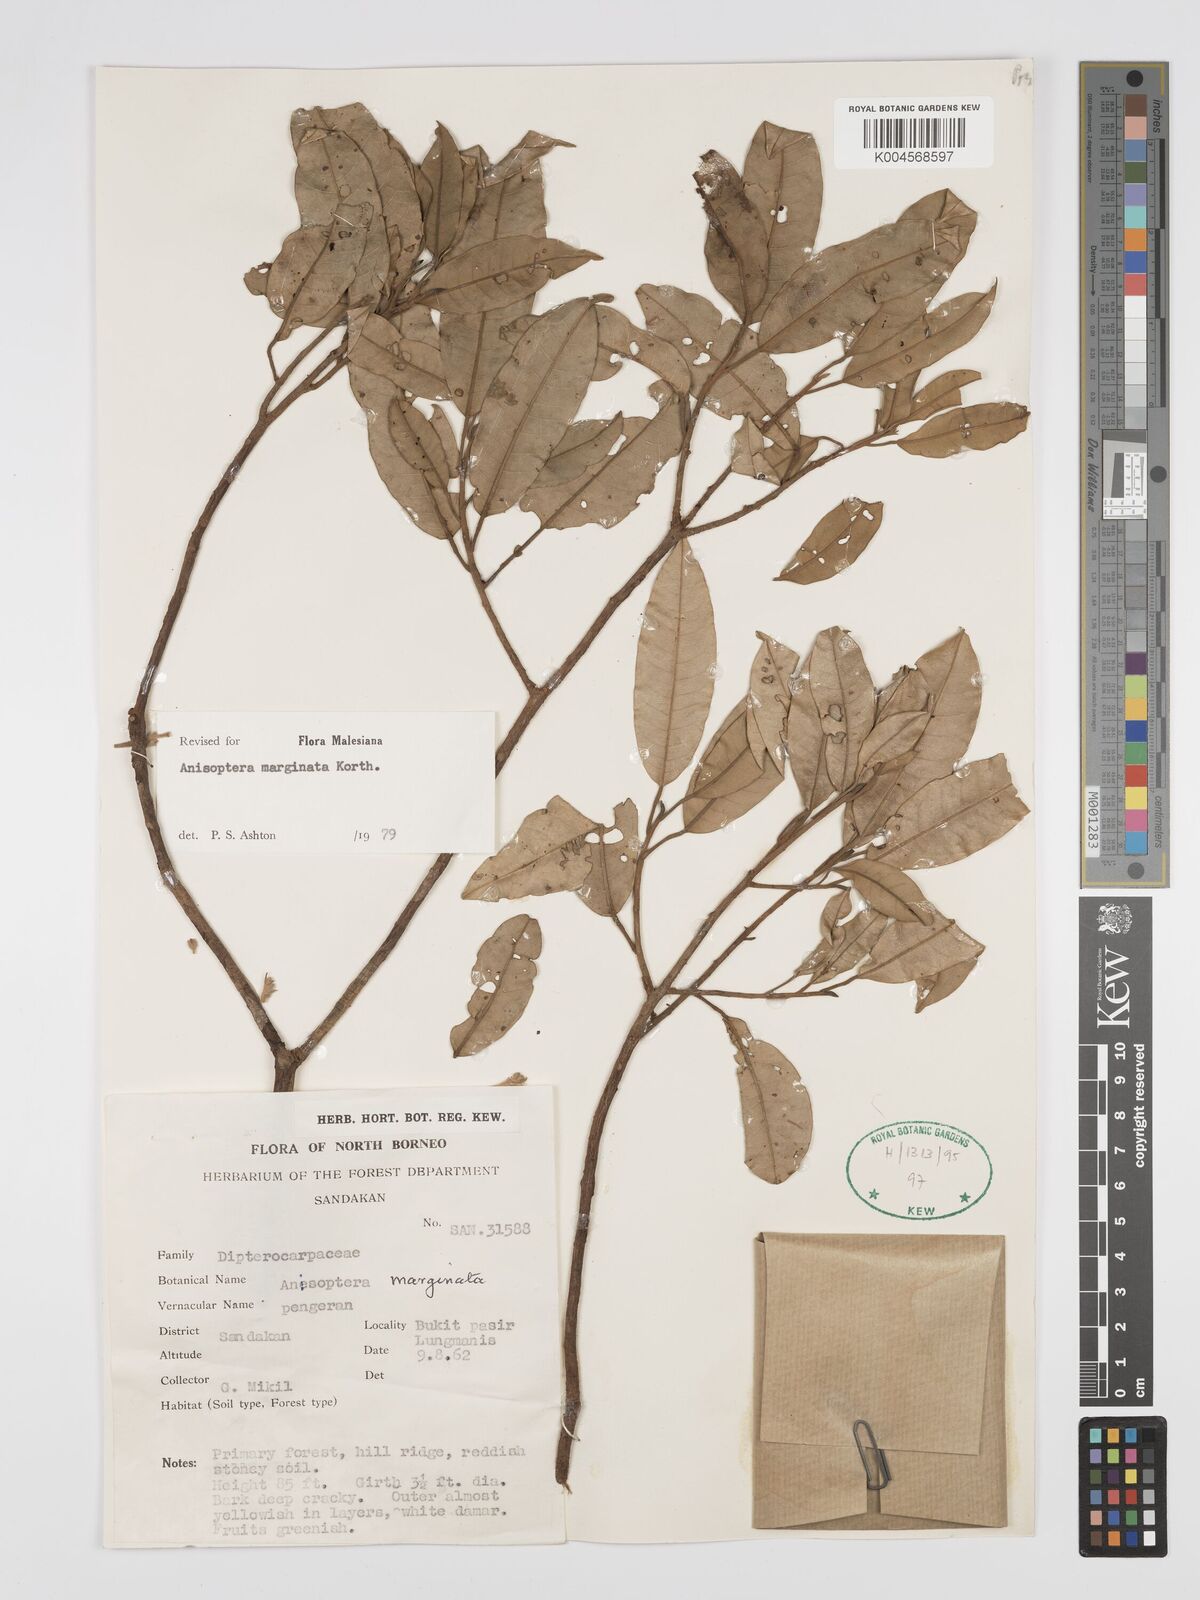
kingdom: Plantae
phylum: Tracheophyta
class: Magnoliopsida
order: Malvales
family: Dipterocarpaceae
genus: Anisoptera
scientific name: Anisoptera marginata
